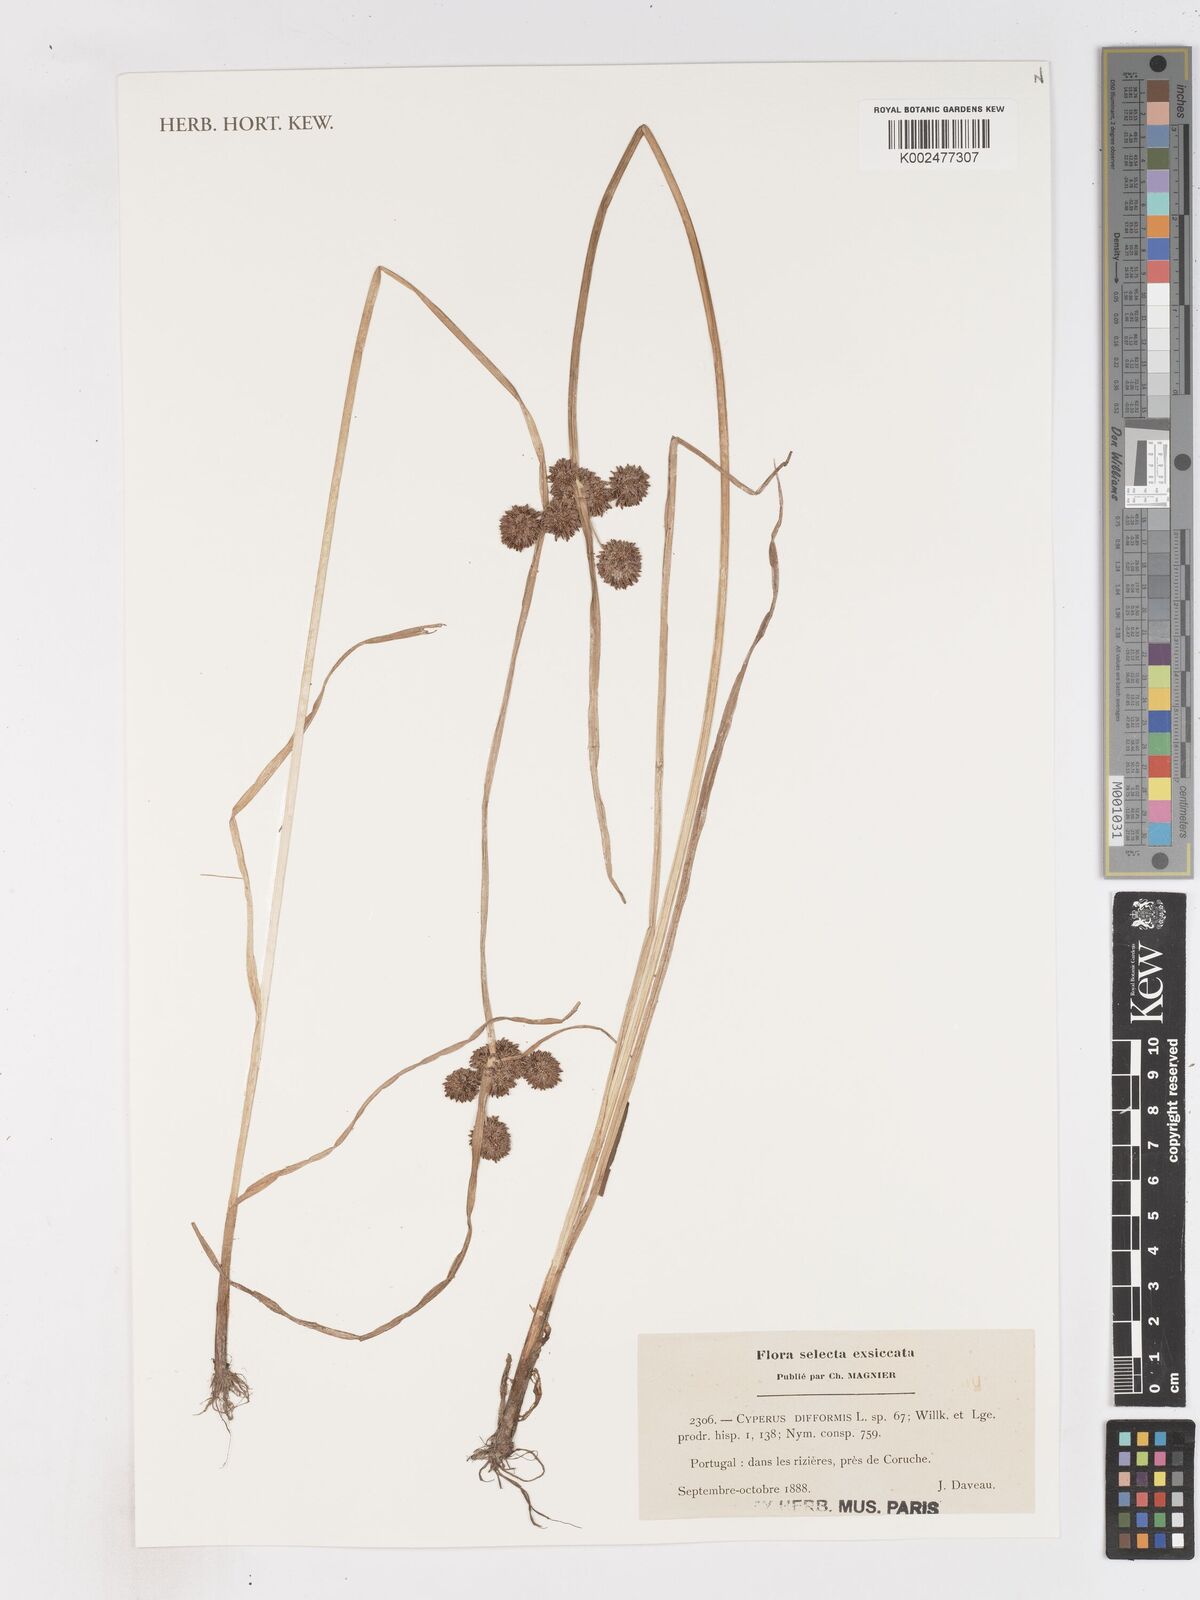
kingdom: Plantae
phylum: Tracheophyta
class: Liliopsida
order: Poales
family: Cyperaceae
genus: Cyperus
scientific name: Cyperus difformis
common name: Variable flatsedge
